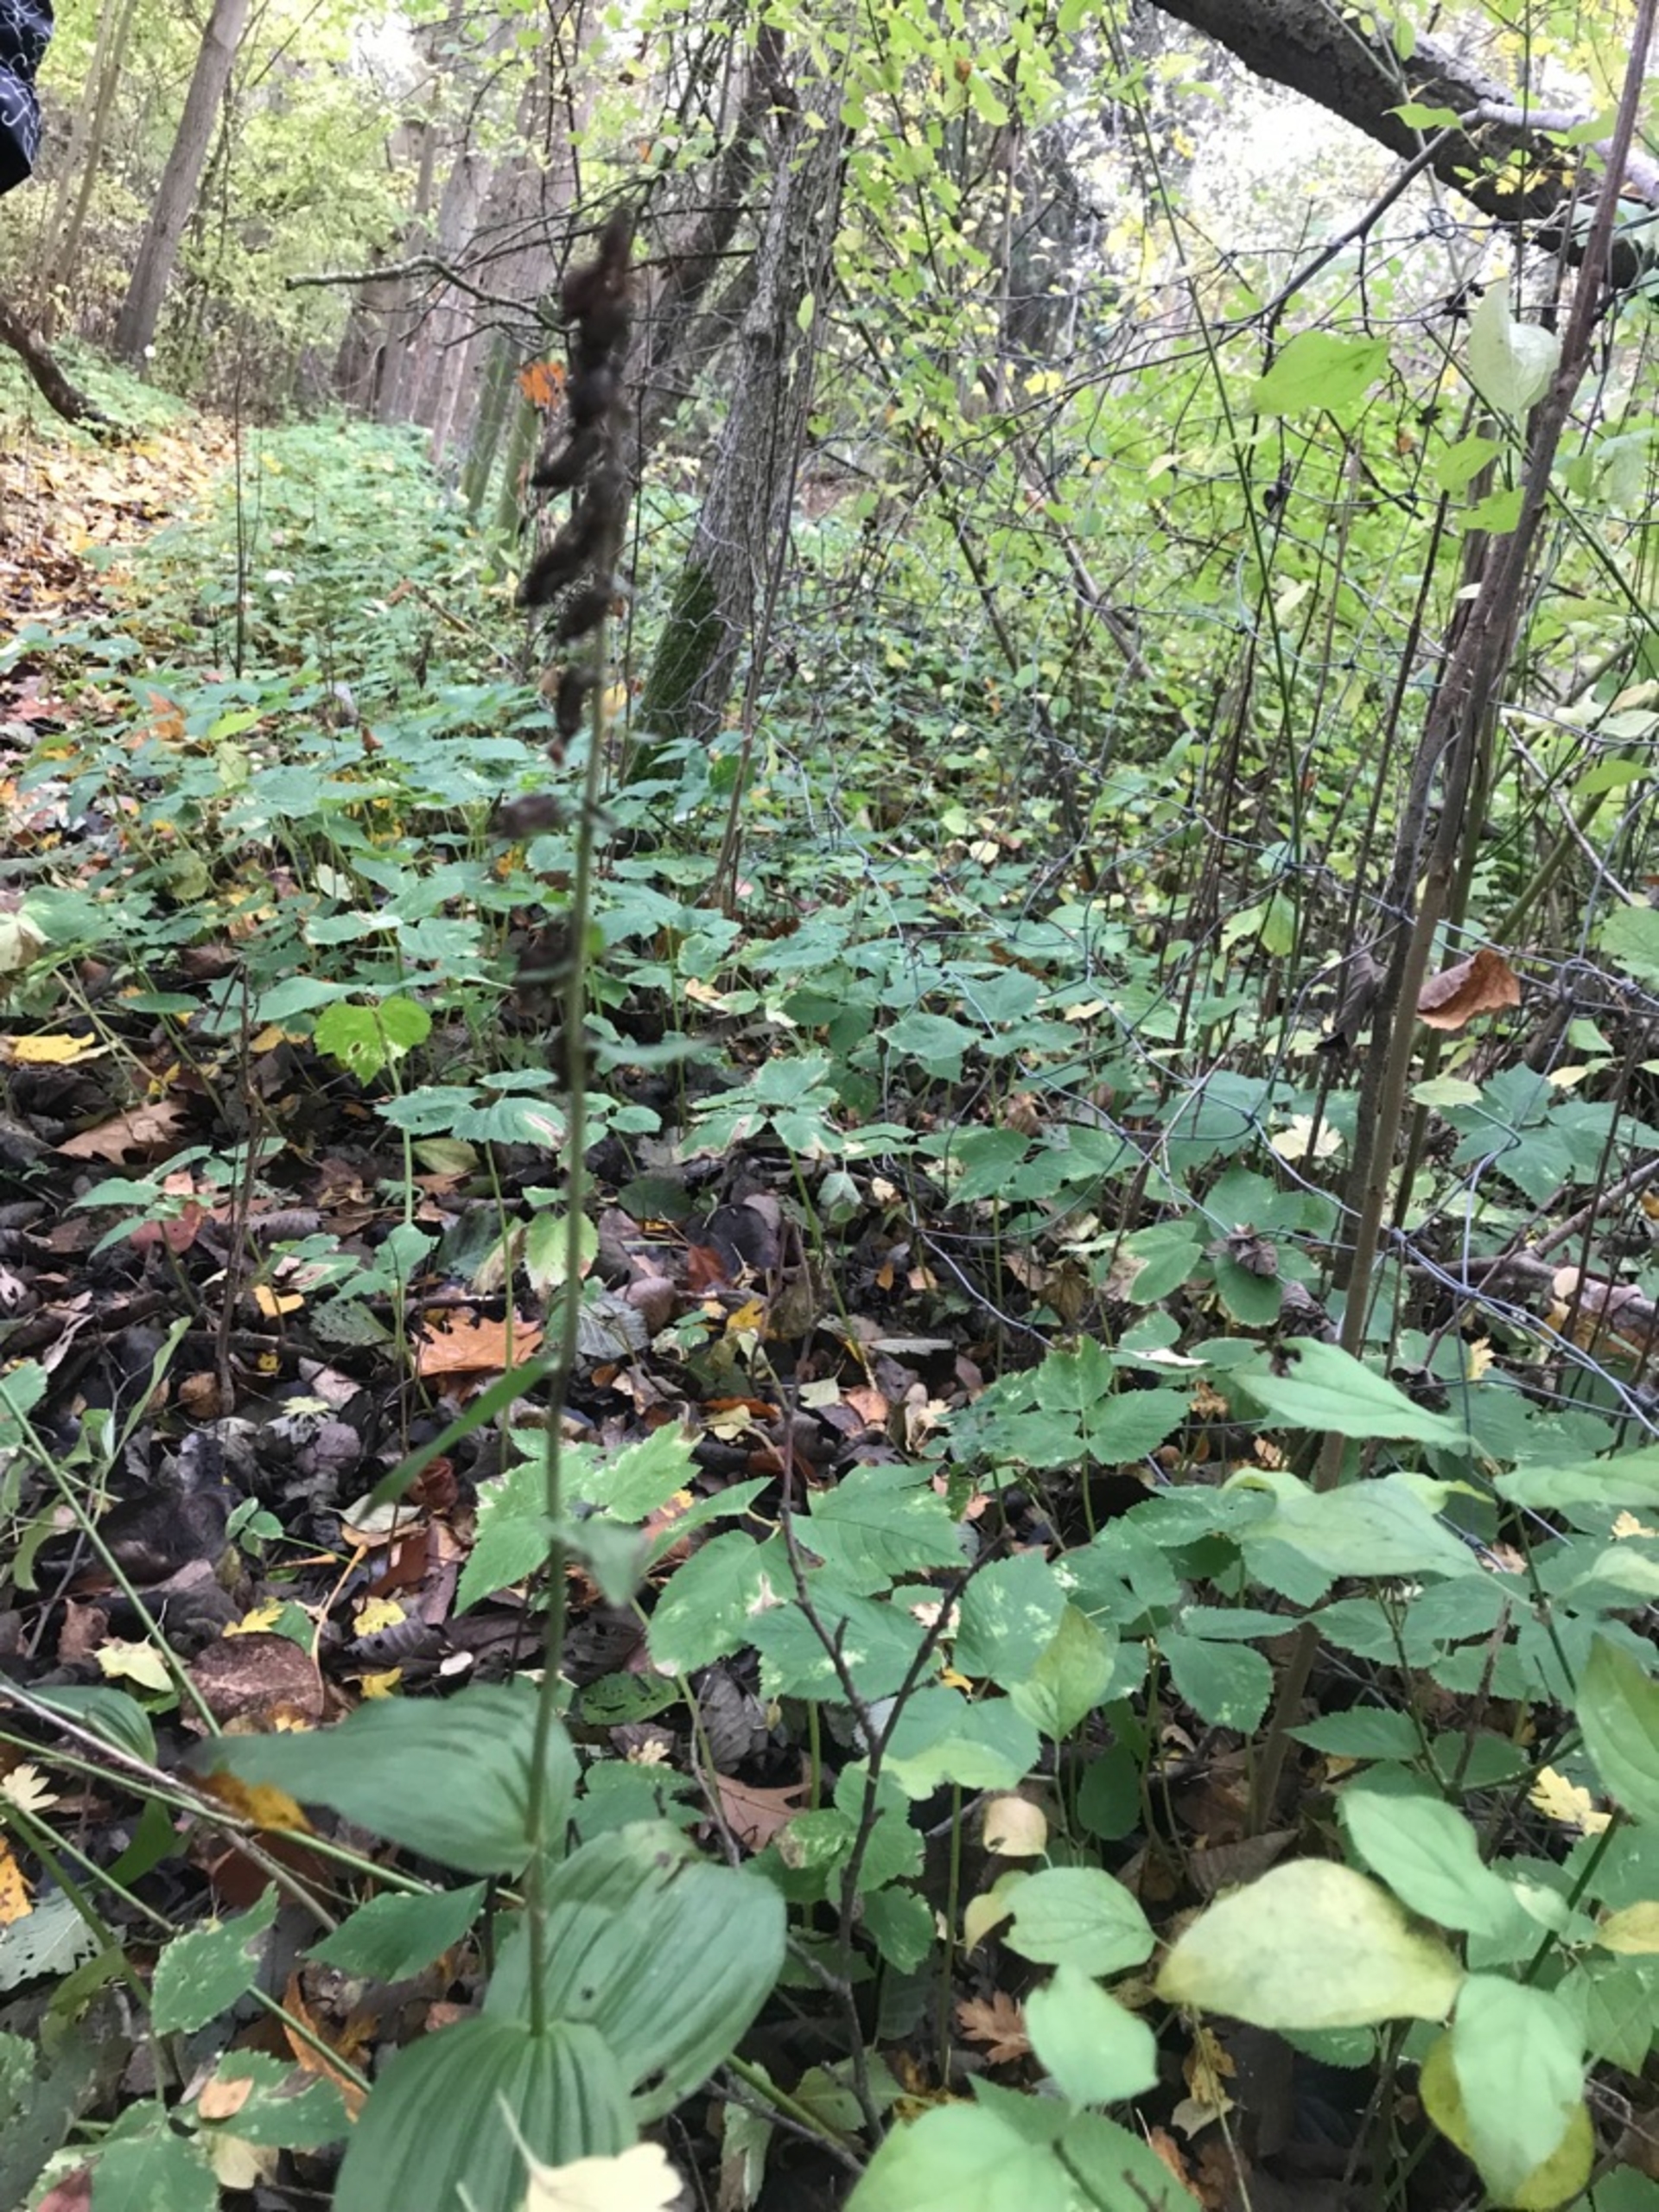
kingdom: Plantae
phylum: Tracheophyta
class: Liliopsida
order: Asparagales
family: Orchidaceae
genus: Epipactis
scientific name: Epipactis helleborine
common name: Skov-hullæbe
